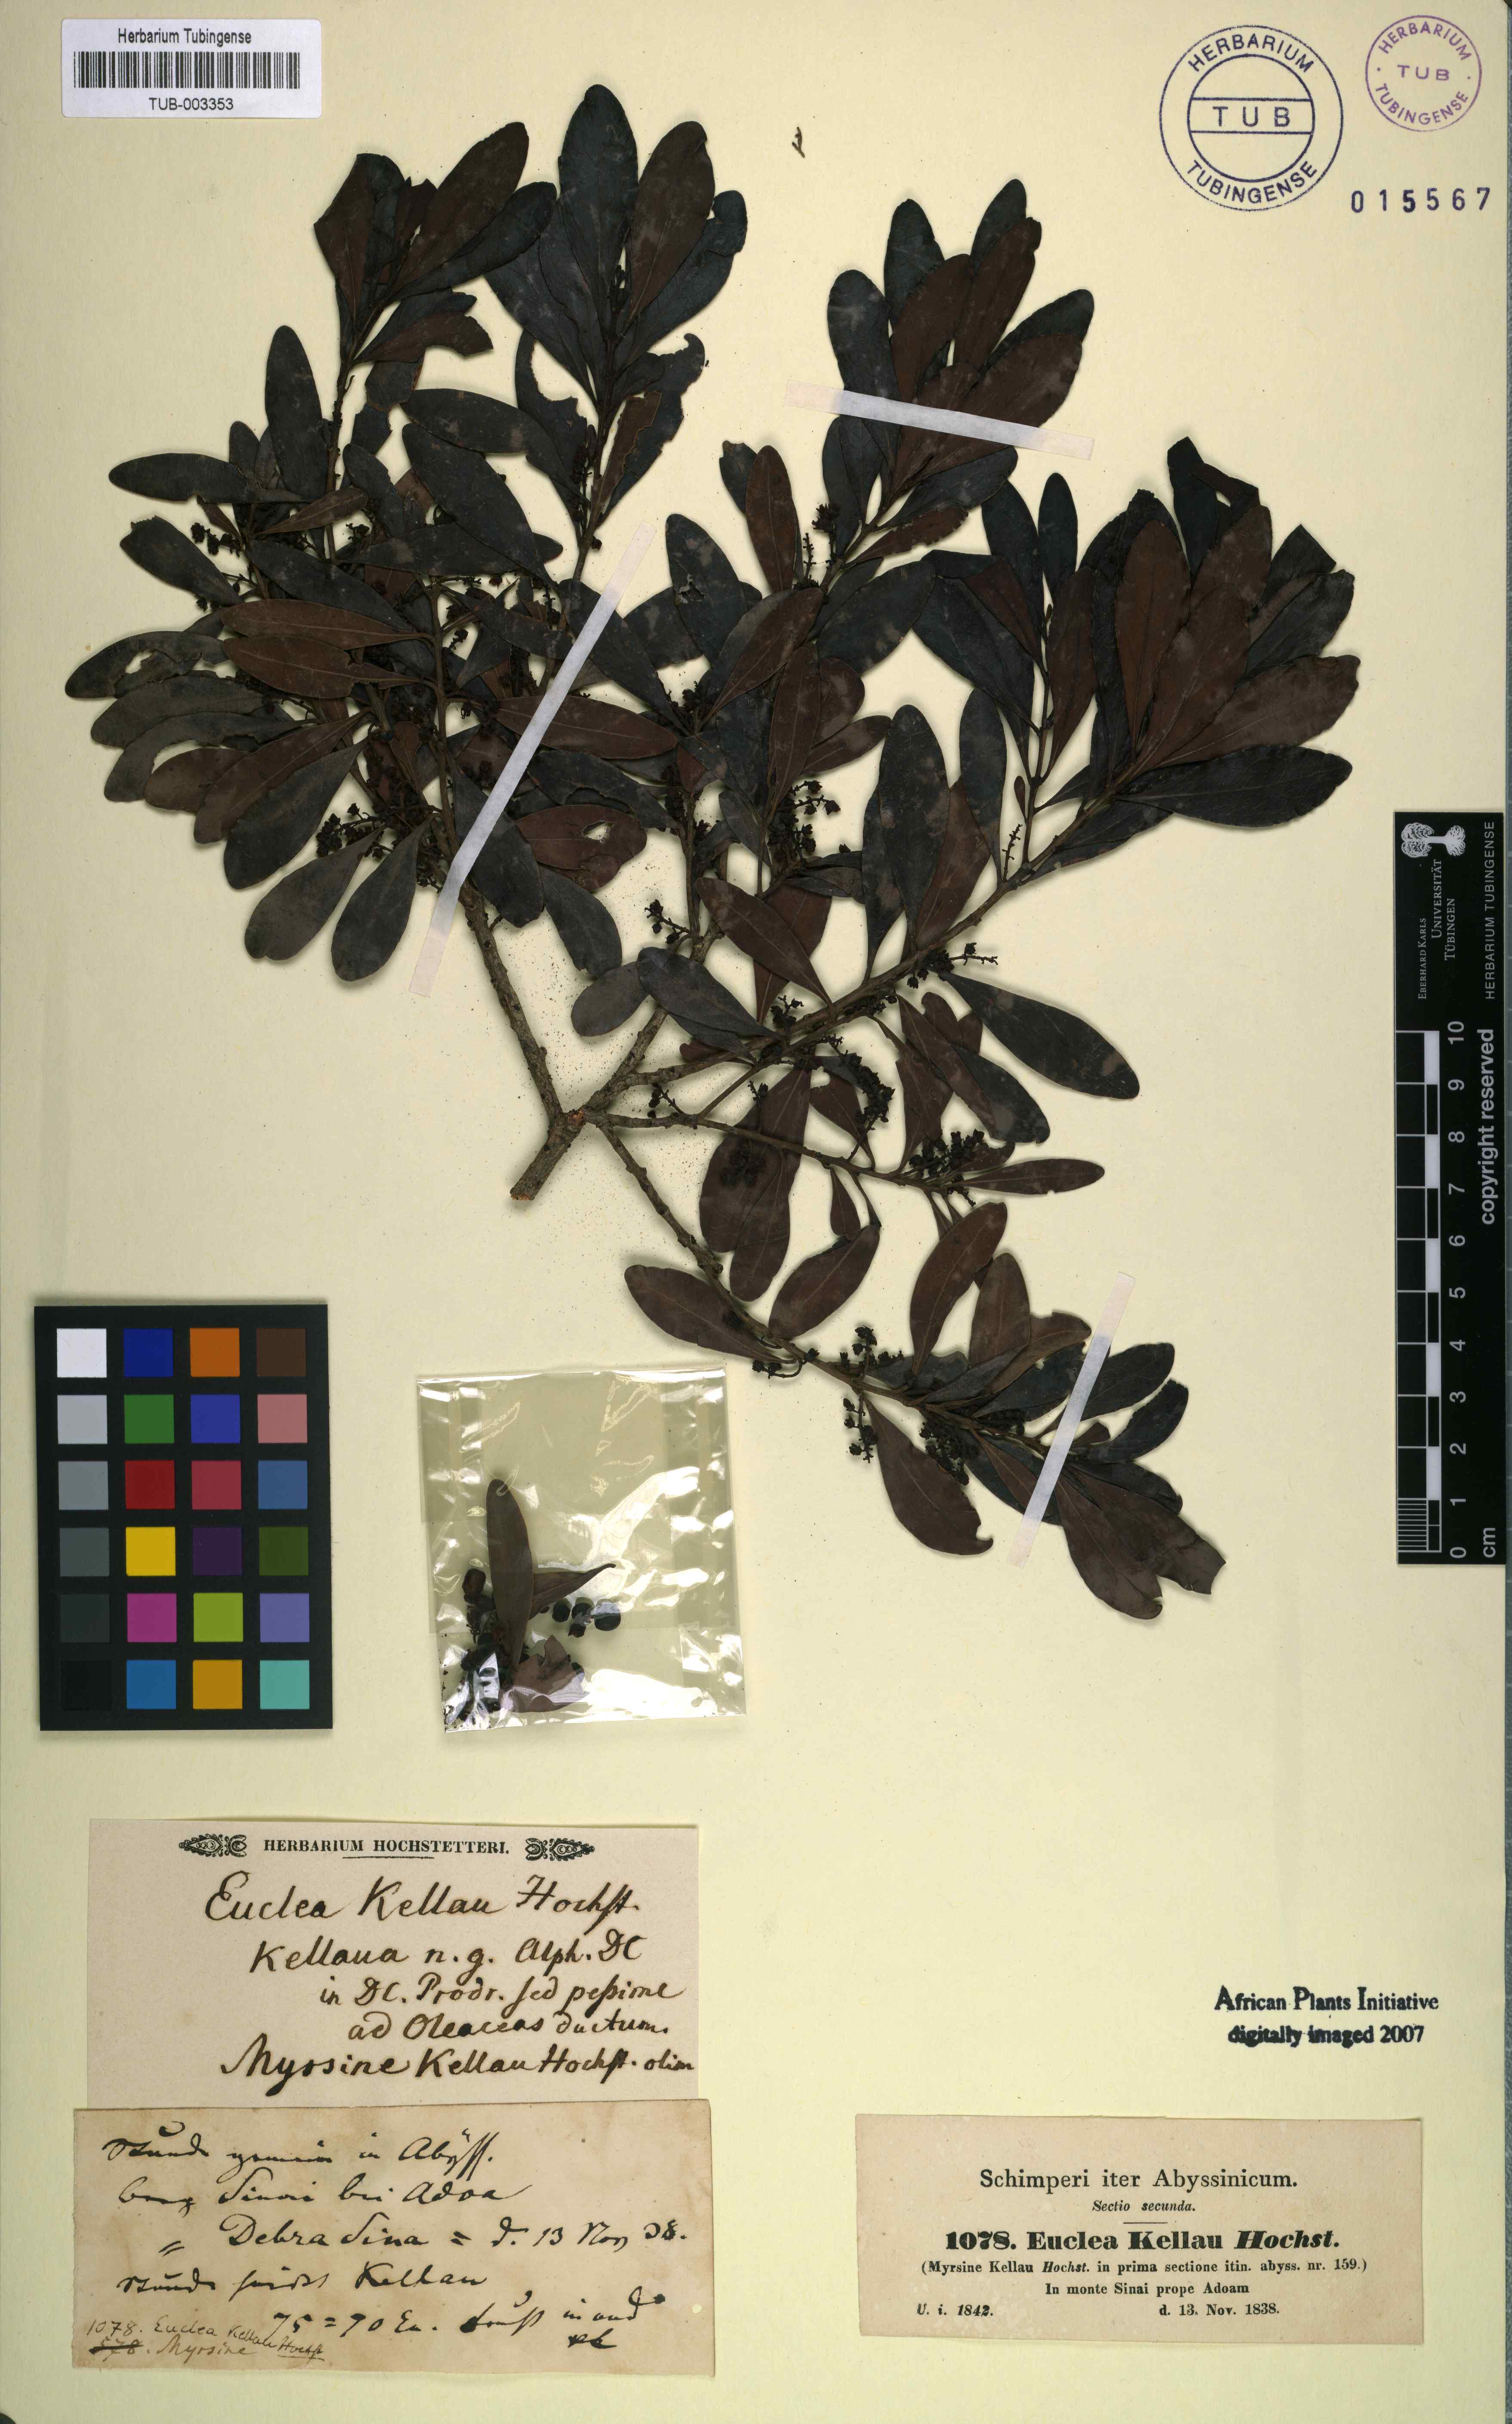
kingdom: Plantae
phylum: Tracheophyta
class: Magnoliopsida
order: Ericales
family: Ebenaceae
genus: Euclea
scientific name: Euclea racemosa
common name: Dune guarri
